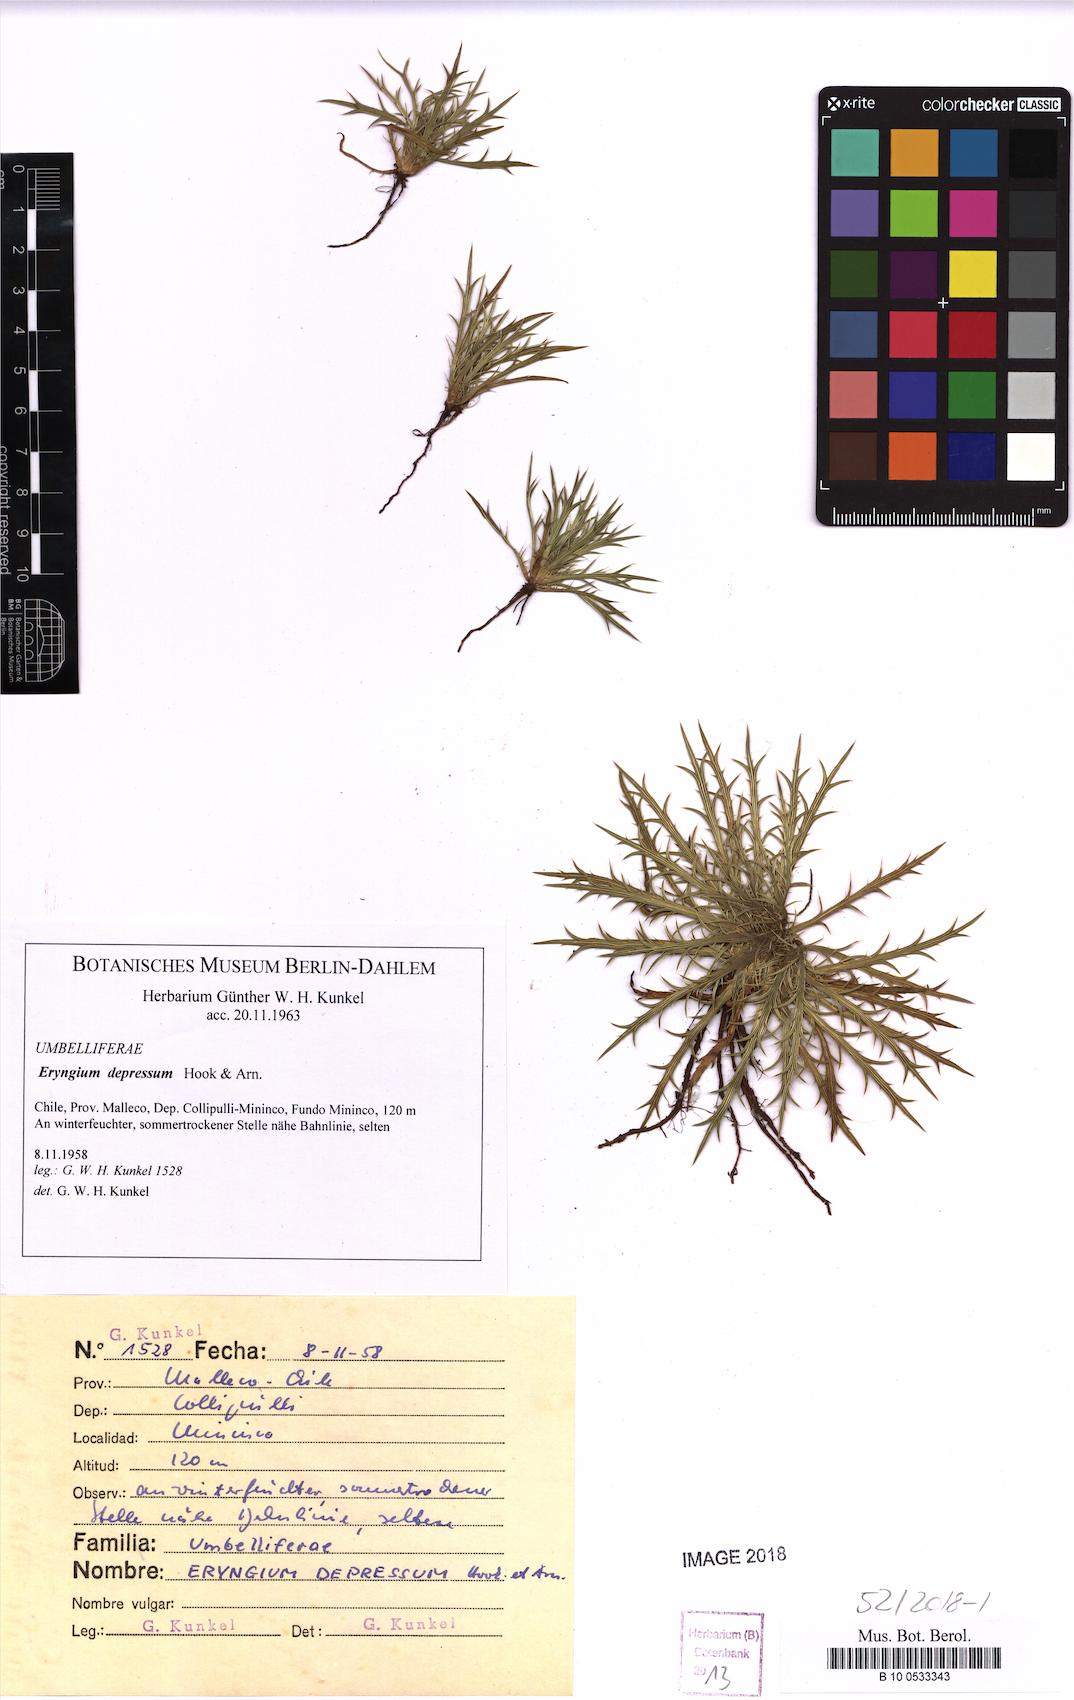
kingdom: Plantae
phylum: Tracheophyta
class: Magnoliopsida
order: Apiales
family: Apiaceae
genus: Eryngium
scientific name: Eryngium depressum
